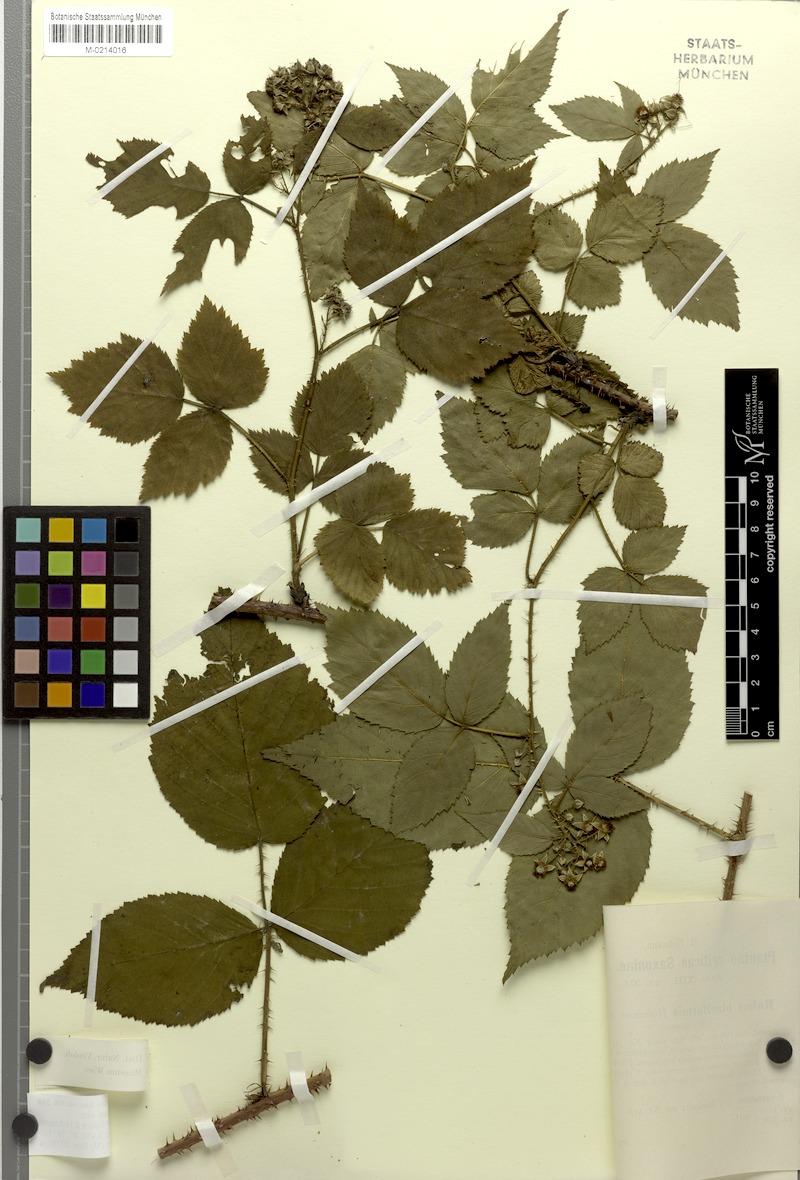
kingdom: Plantae
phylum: Tracheophyta
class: Magnoliopsida
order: Rosales
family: Rosaceae
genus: Rubus
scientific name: Rubus idaeiformis
